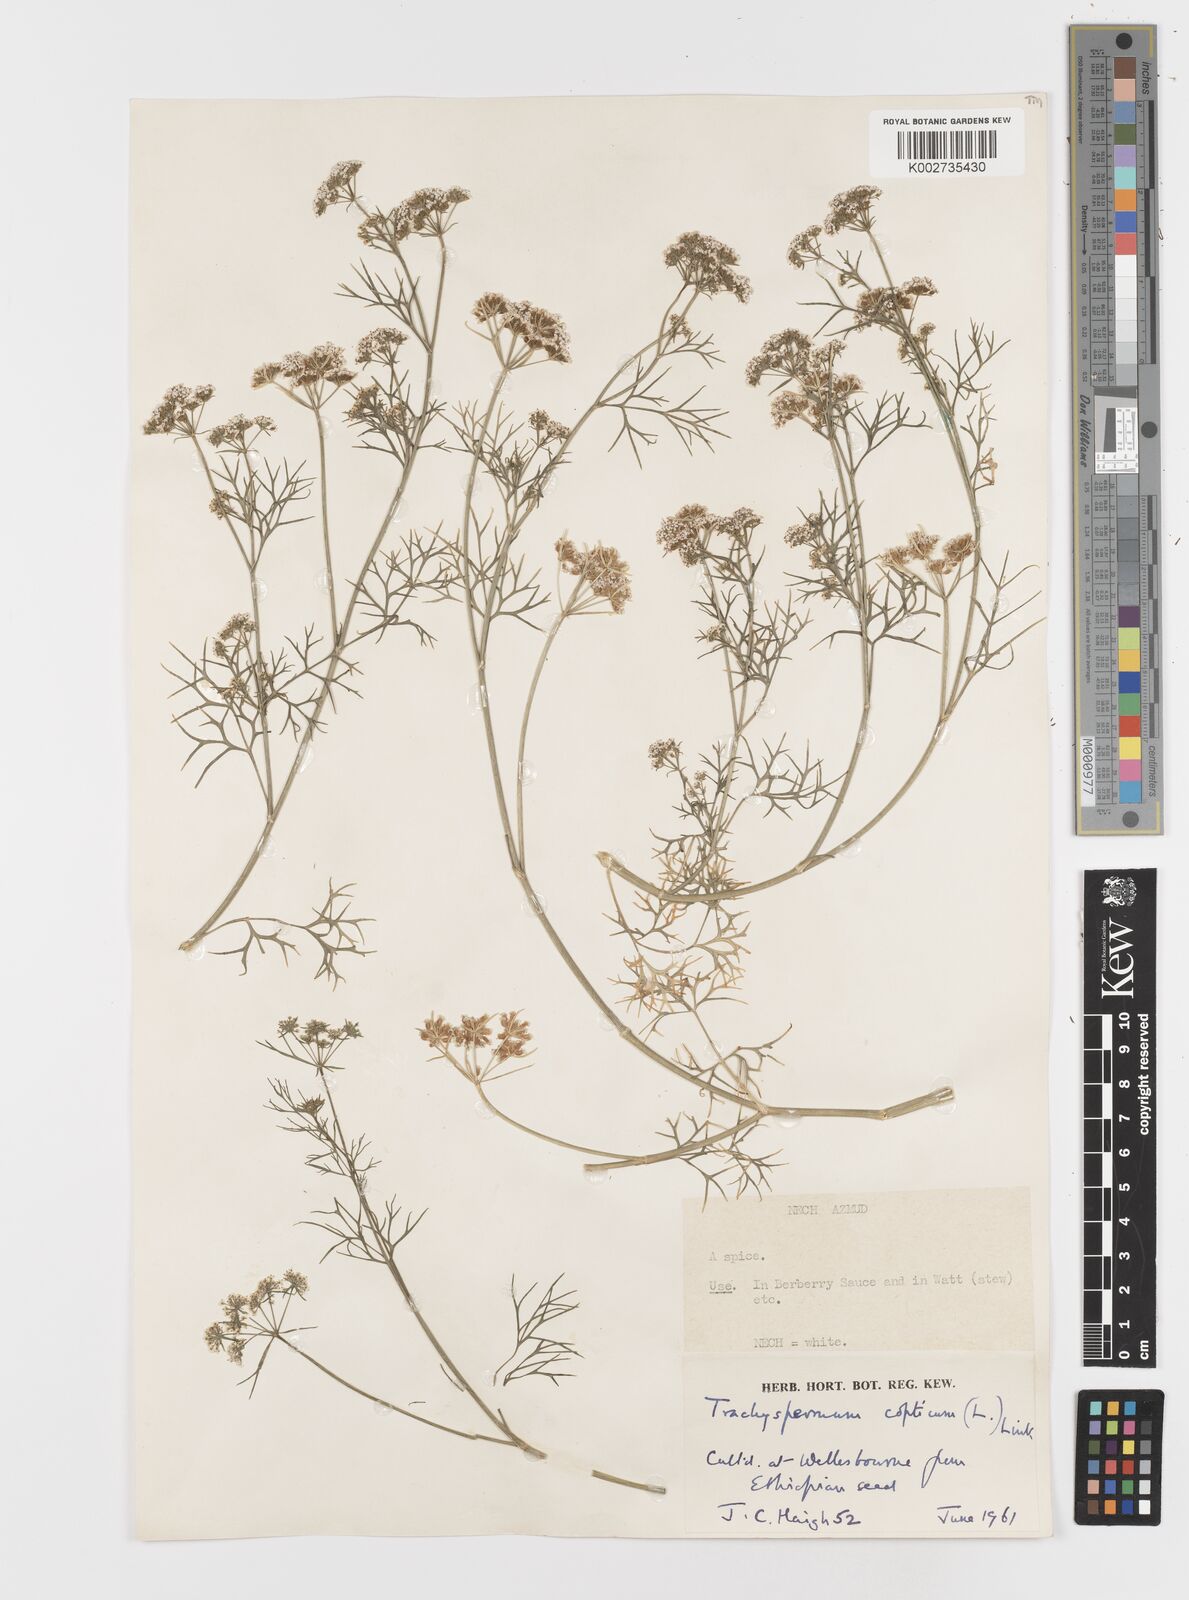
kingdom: Plantae
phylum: Tracheophyta
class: Magnoliopsida
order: Apiales
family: Apiaceae
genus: Trachyspermum
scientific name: Trachyspermum ammi
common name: Ajowan
